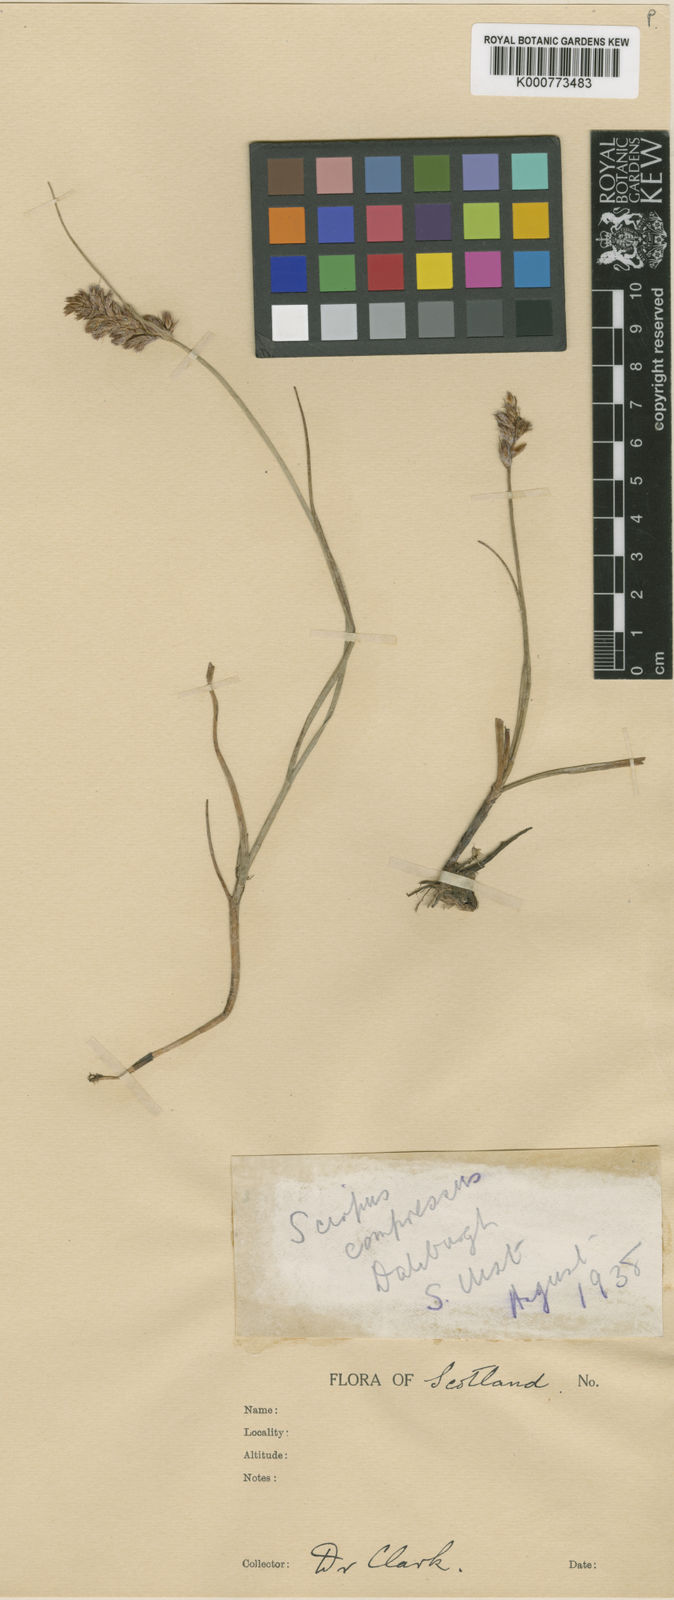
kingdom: Plantae
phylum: Tracheophyta
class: Liliopsida
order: Poales
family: Cyperaceae
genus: Blysmus
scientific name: Blysmus compressus
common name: Flat-sedge
